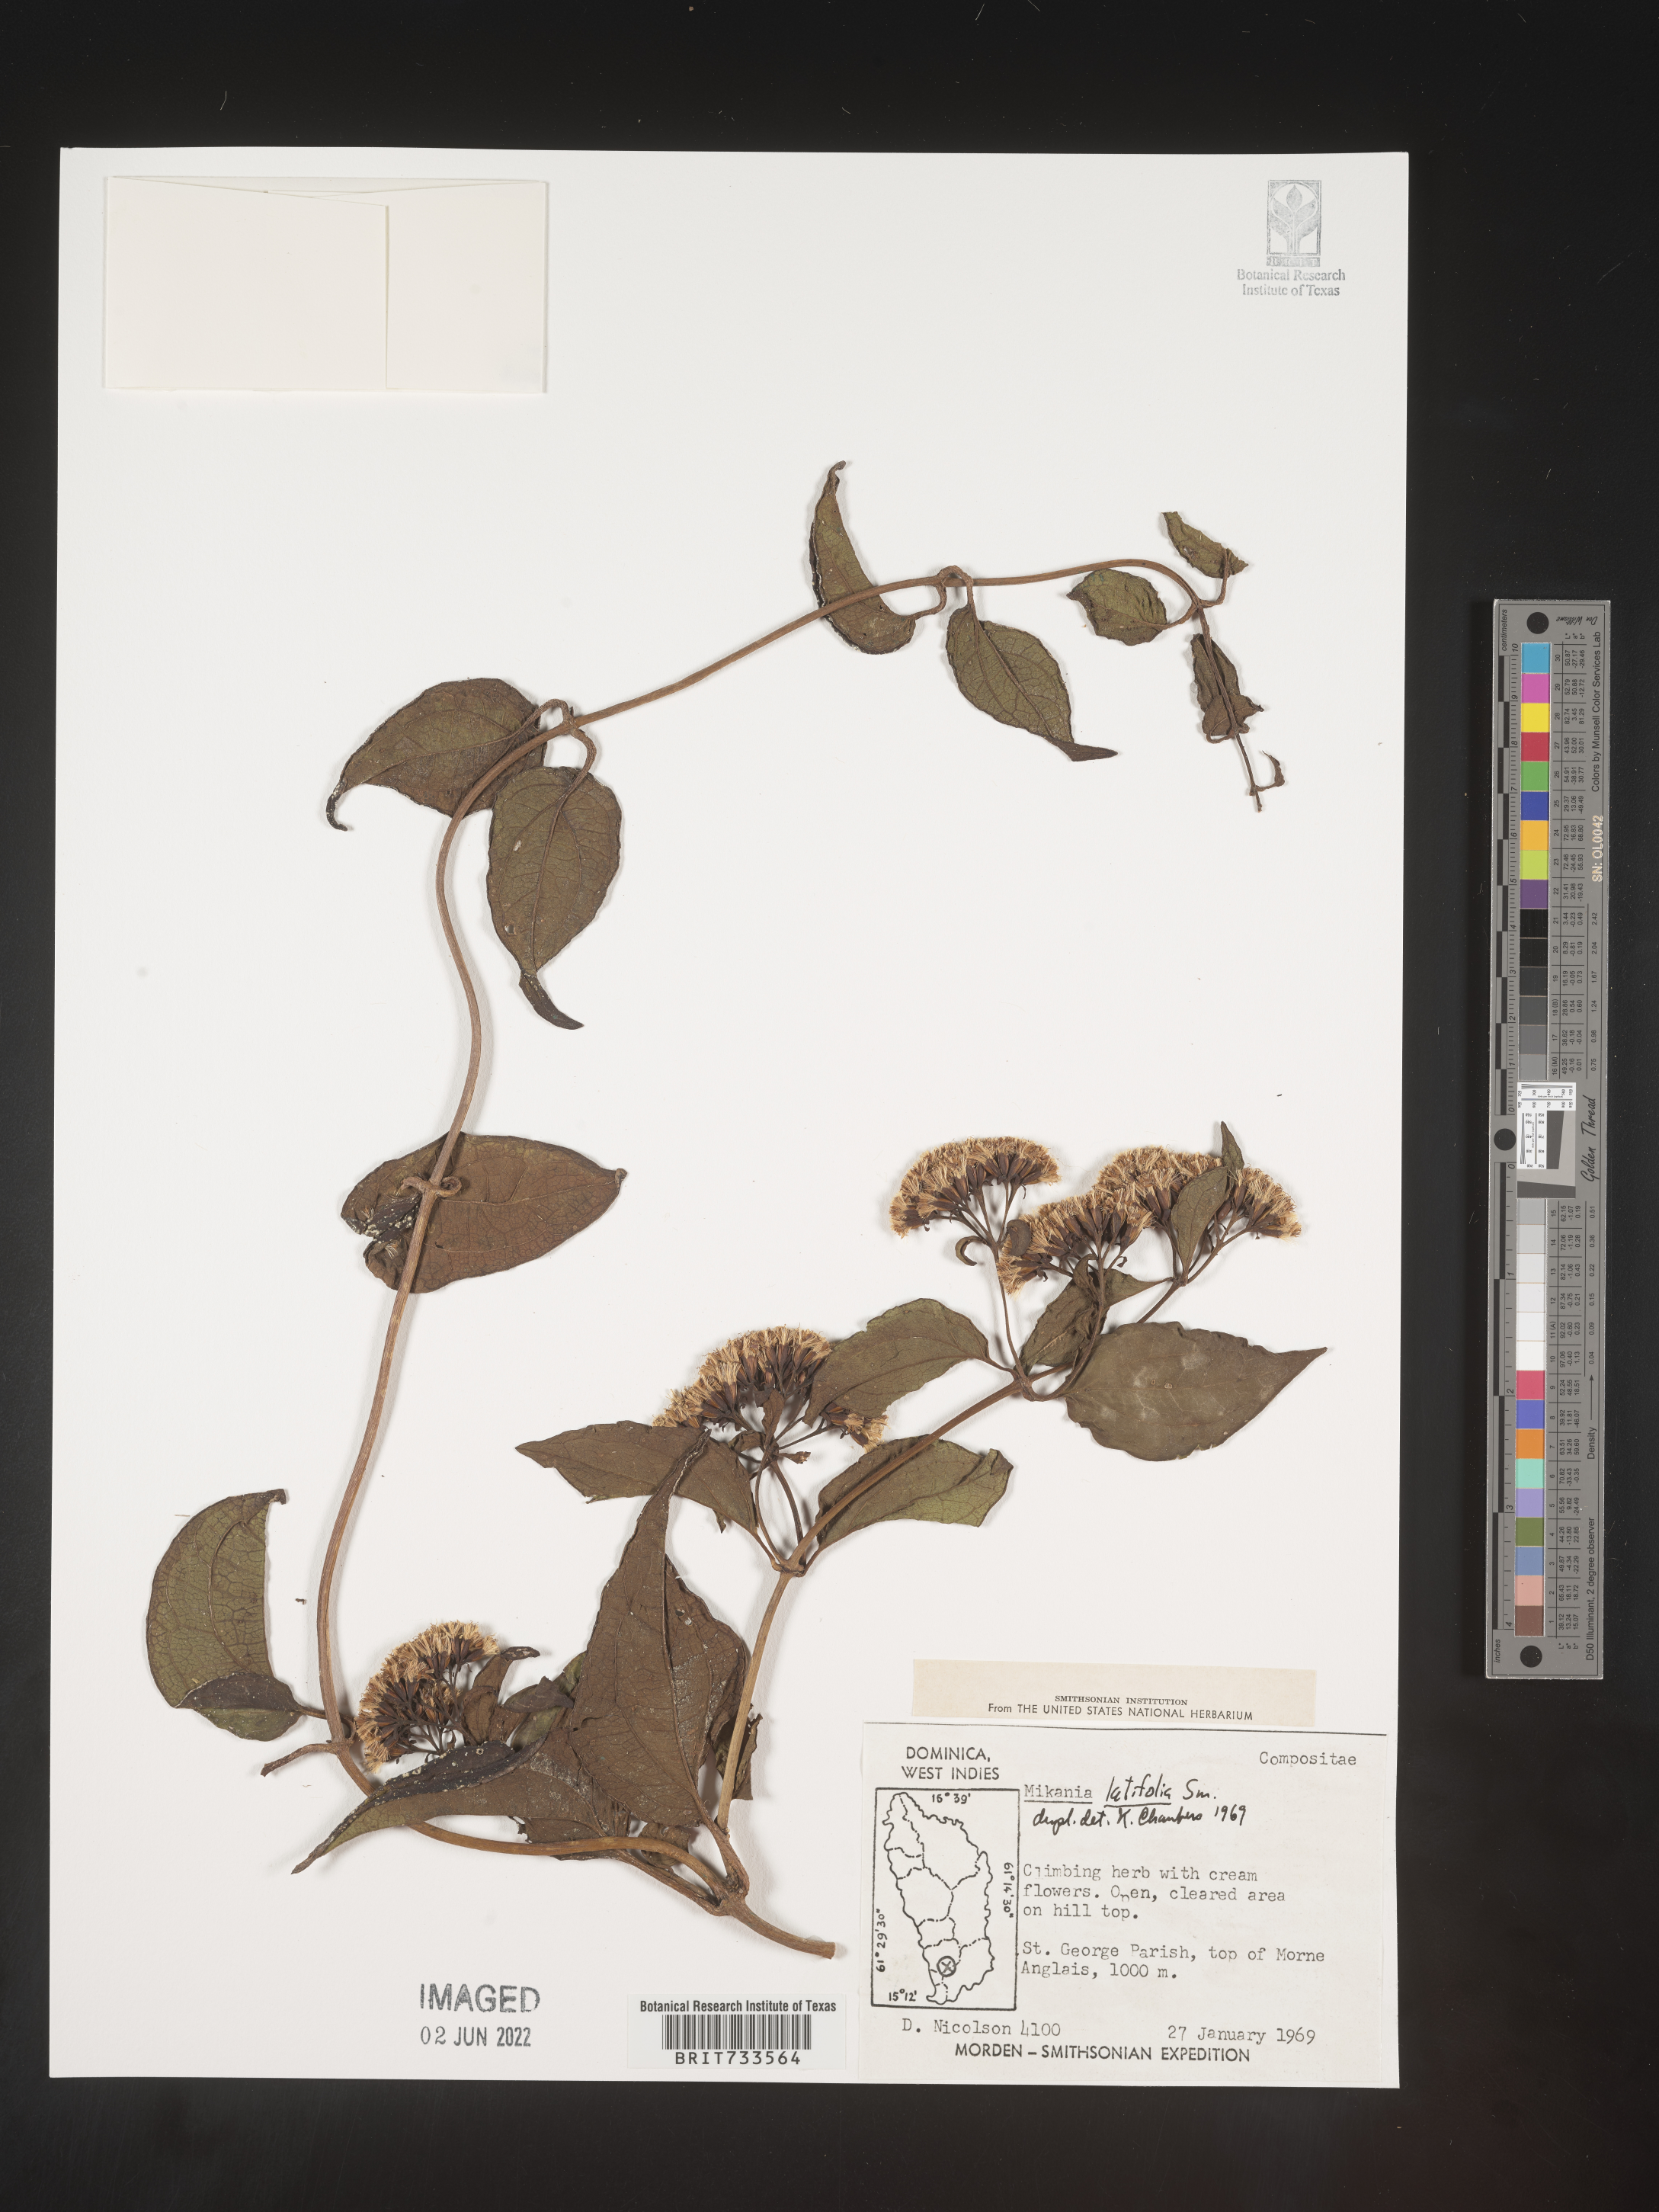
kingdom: Plantae
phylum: Tracheophyta
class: Magnoliopsida
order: Asterales
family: Asteraceae
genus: Mikania
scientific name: Mikania
